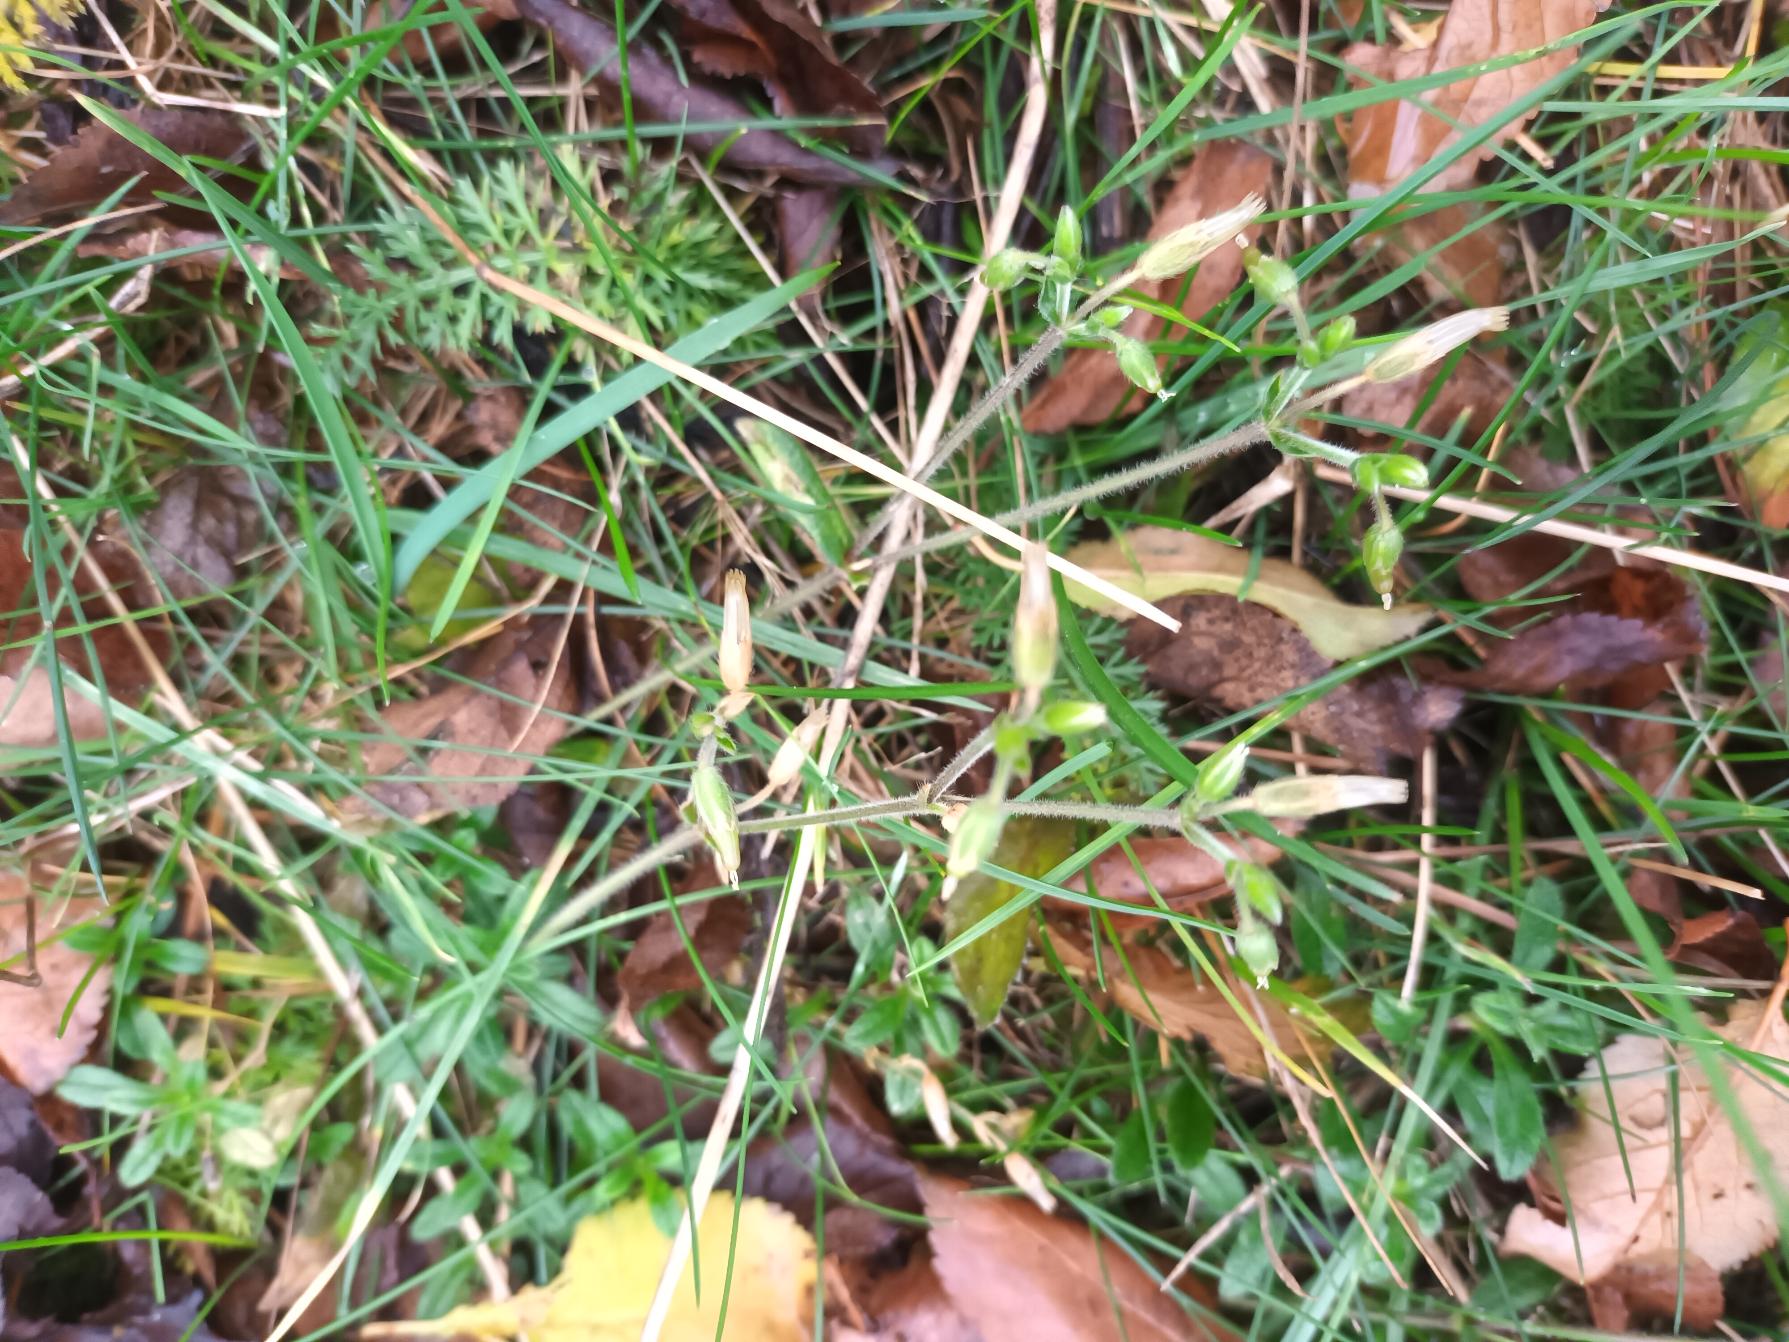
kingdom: Plantae
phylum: Tracheophyta
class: Magnoliopsida
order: Caryophyllales
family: Caryophyllaceae
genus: Cerastium
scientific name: Cerastium fontanum
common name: Almindelig hønsetarm
